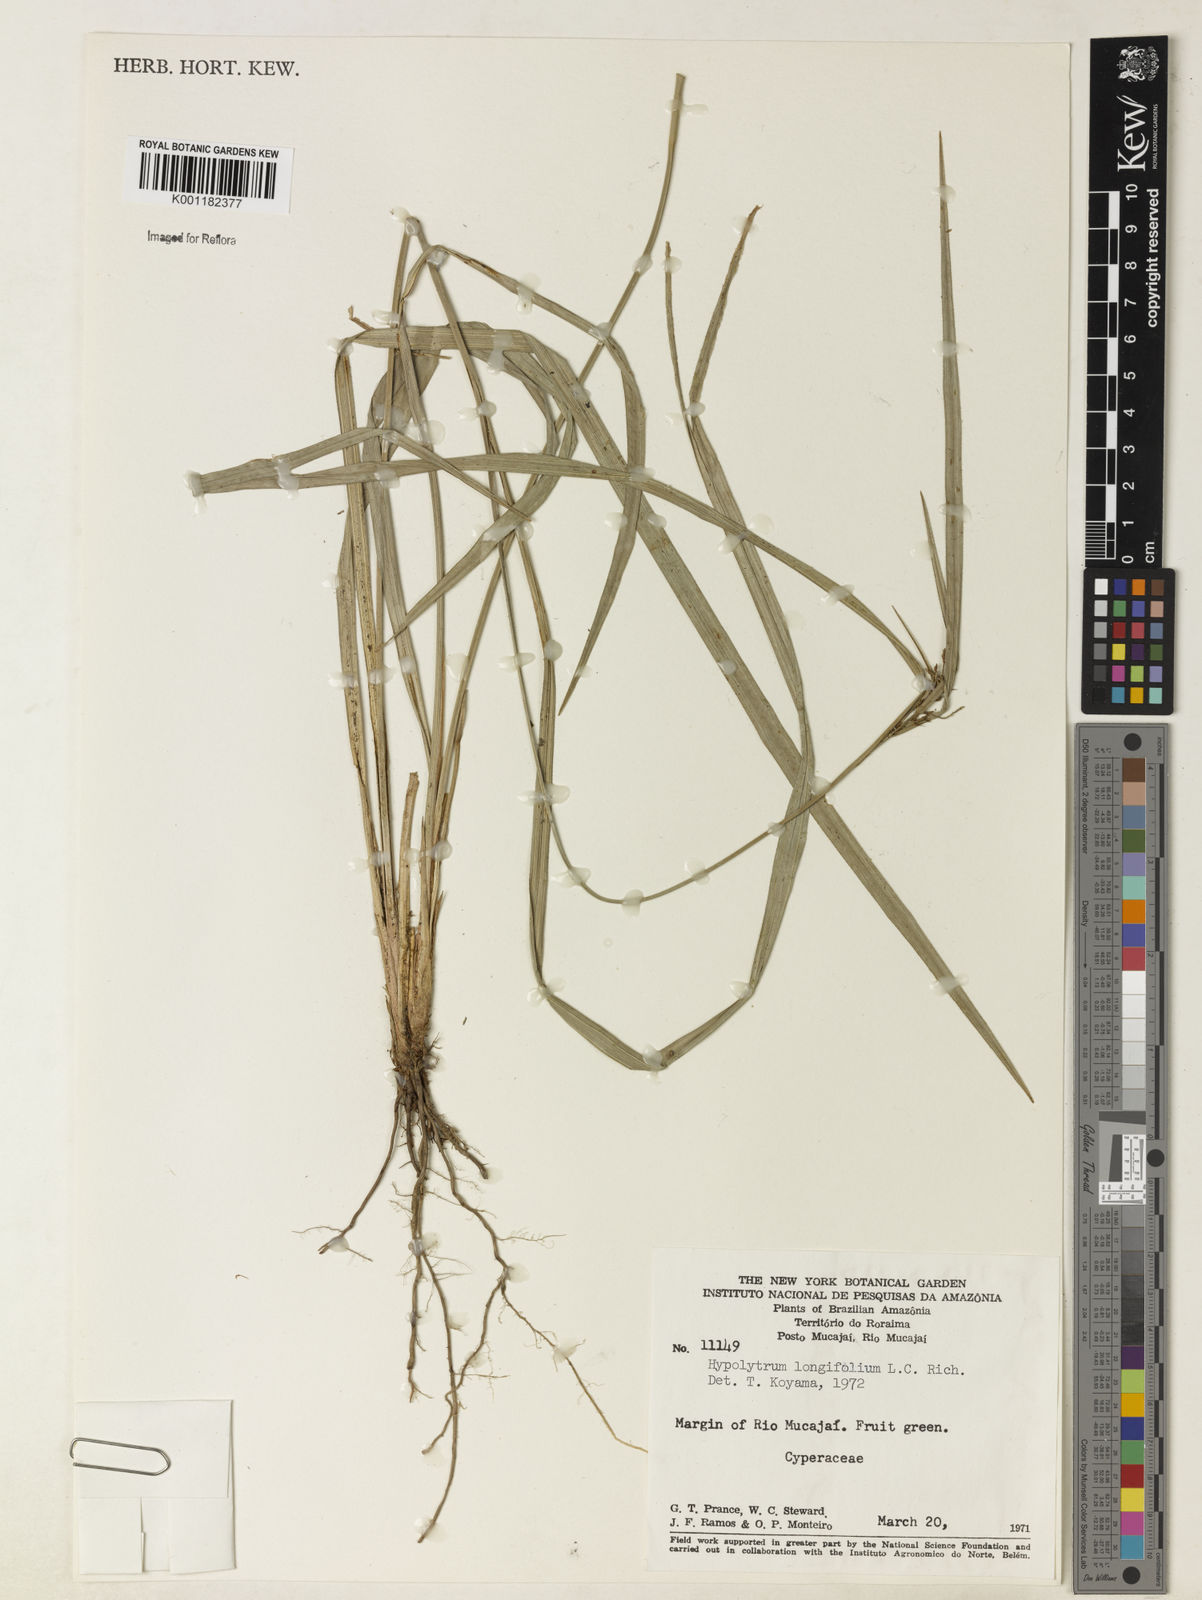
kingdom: Plantae
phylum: Tracheophyta
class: Liliopsida
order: Poales
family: Cyperaceae
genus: Hypolytrum
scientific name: Hypolytrum longifolium
